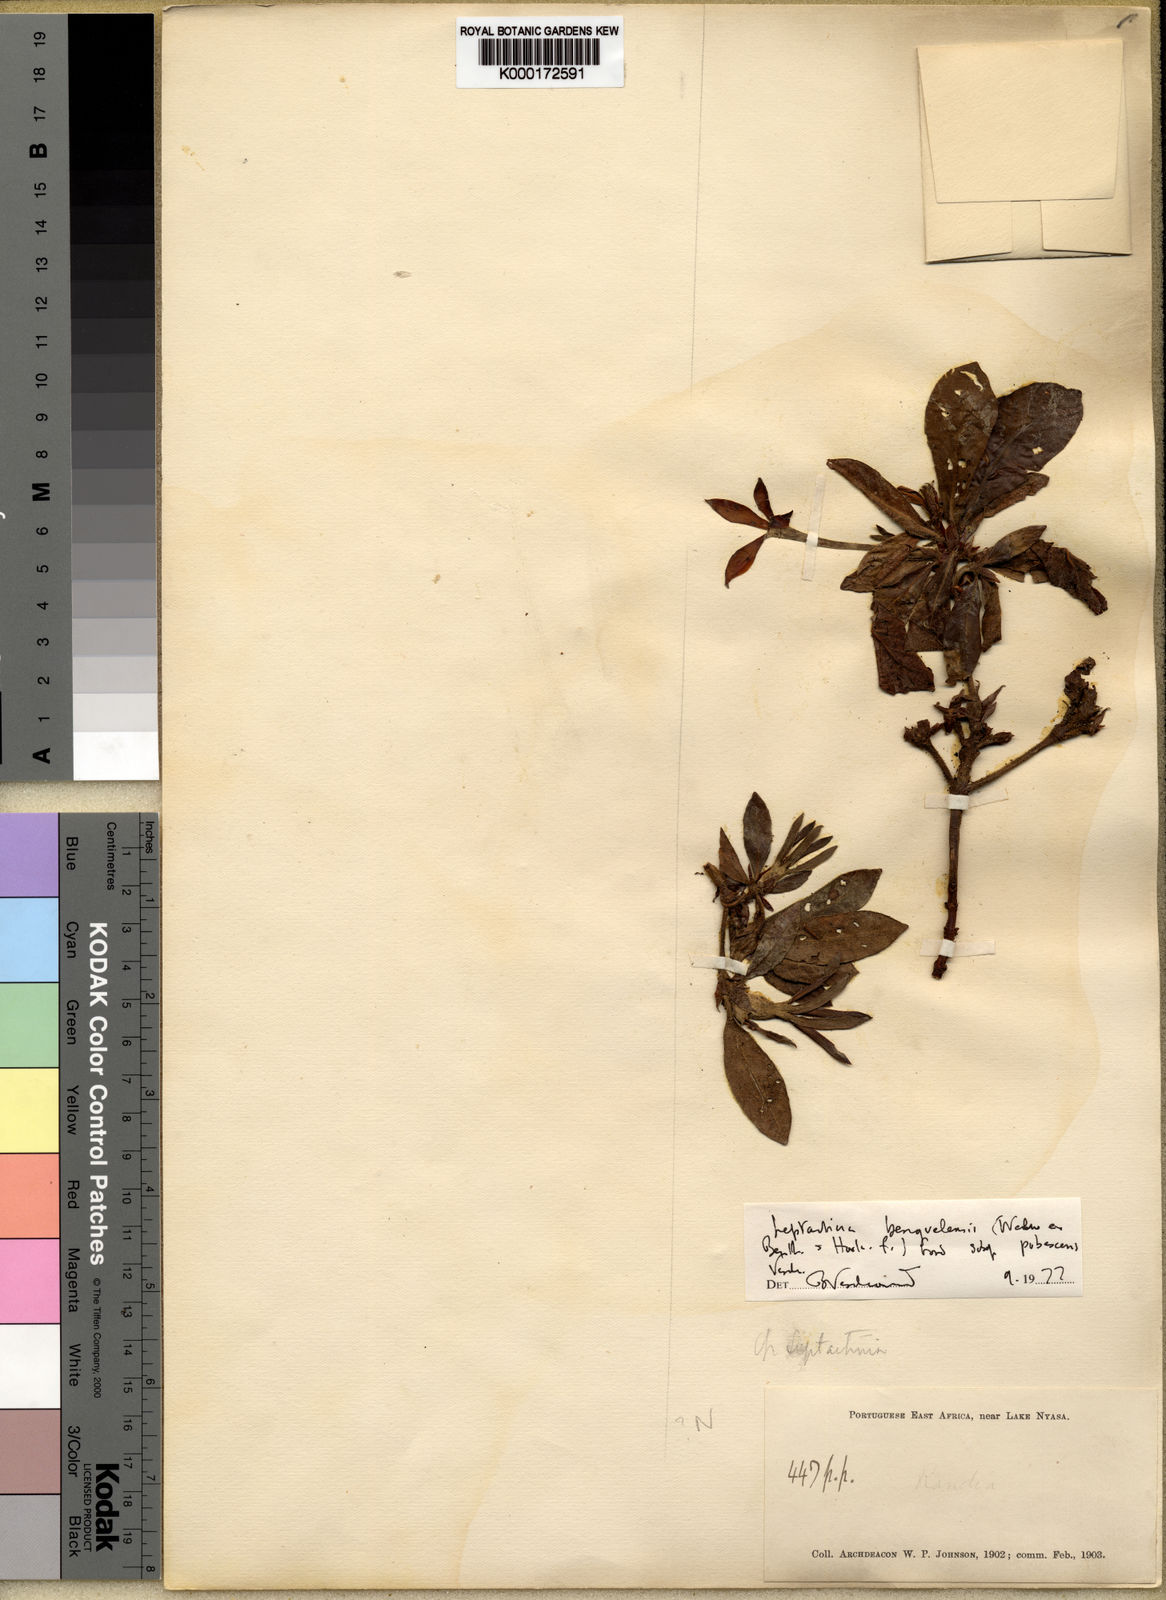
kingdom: Plantae
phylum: Tracheophyta
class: Magnoliopsida
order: Gentianales
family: Rubiaceae
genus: Leptactina
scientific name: Leptactina benguelensis
